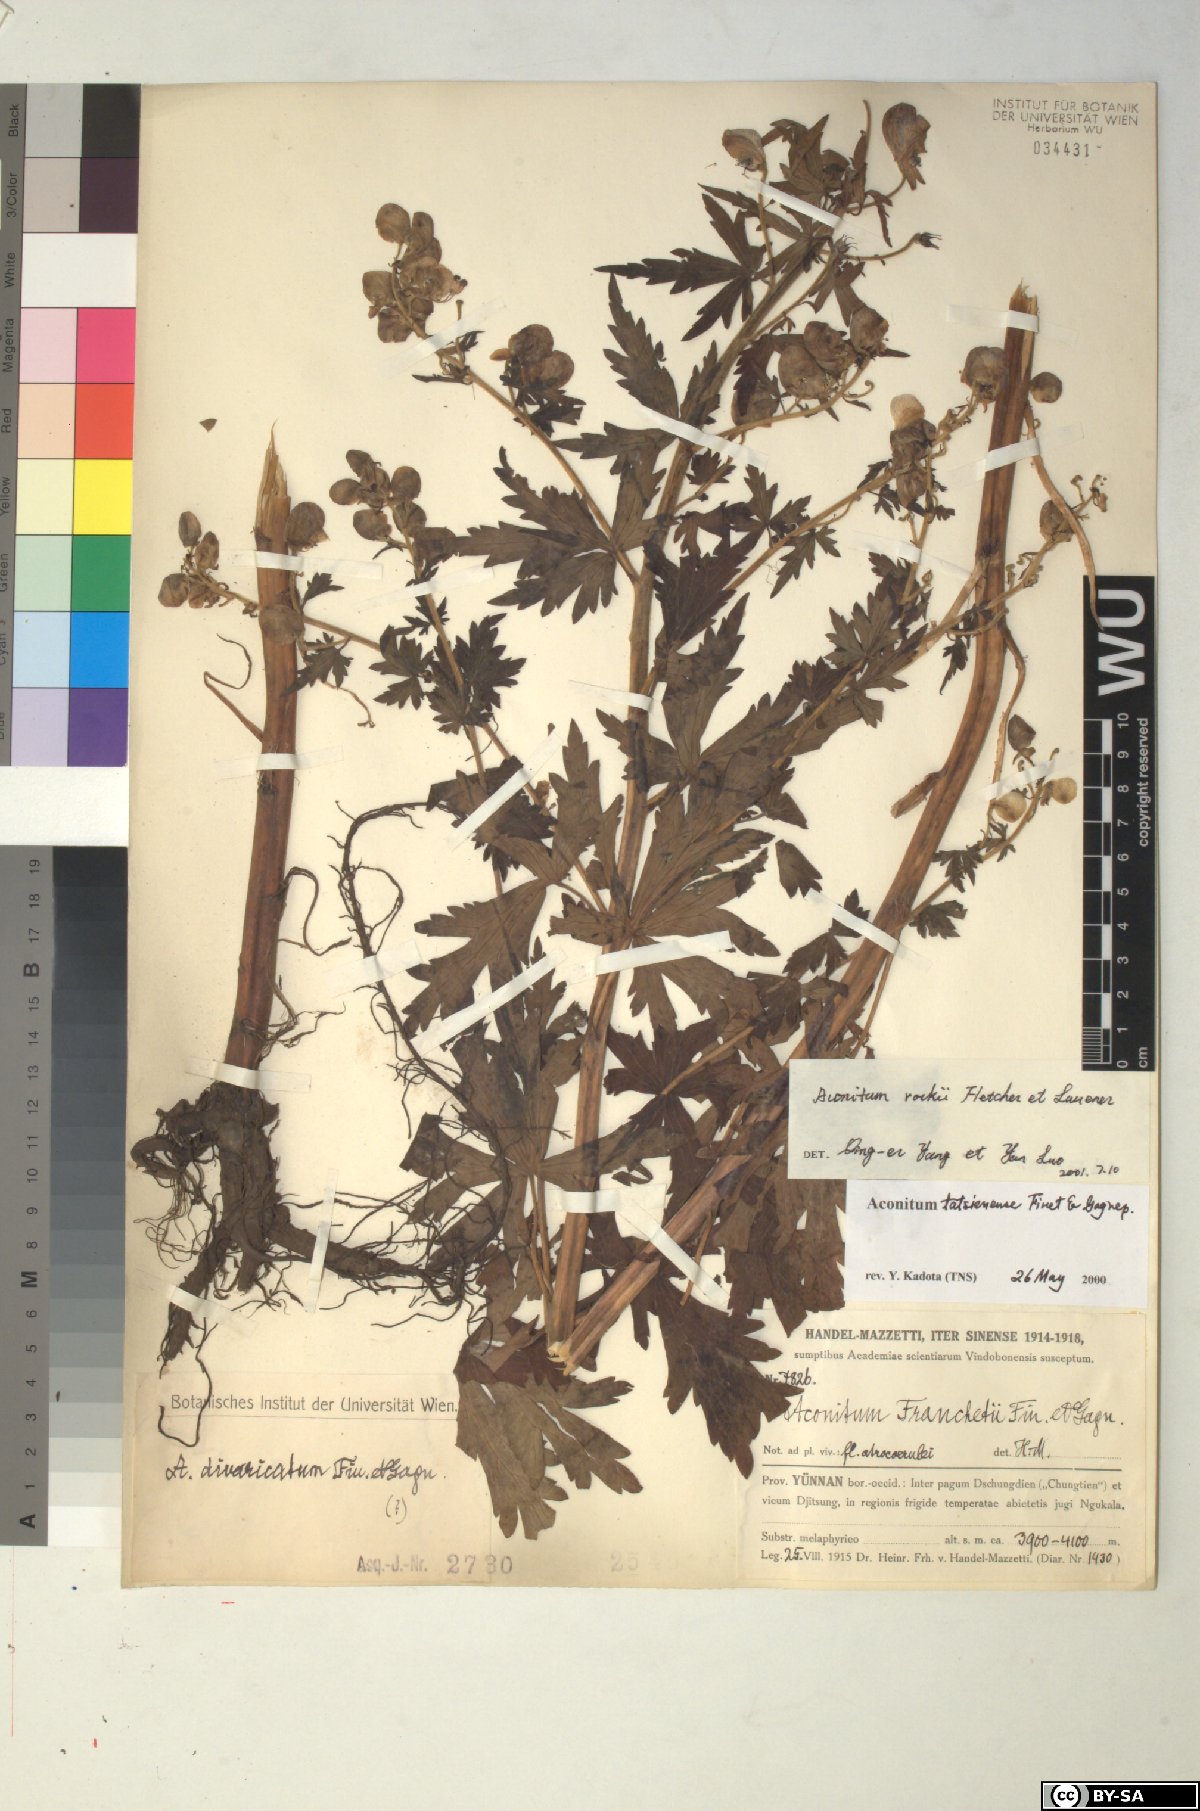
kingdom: Plantae
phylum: Tracheophyta
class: Magnoliopsida
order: Ranunculales
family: Ranunculaceae
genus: Aconitum
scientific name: Aconitum rockii
